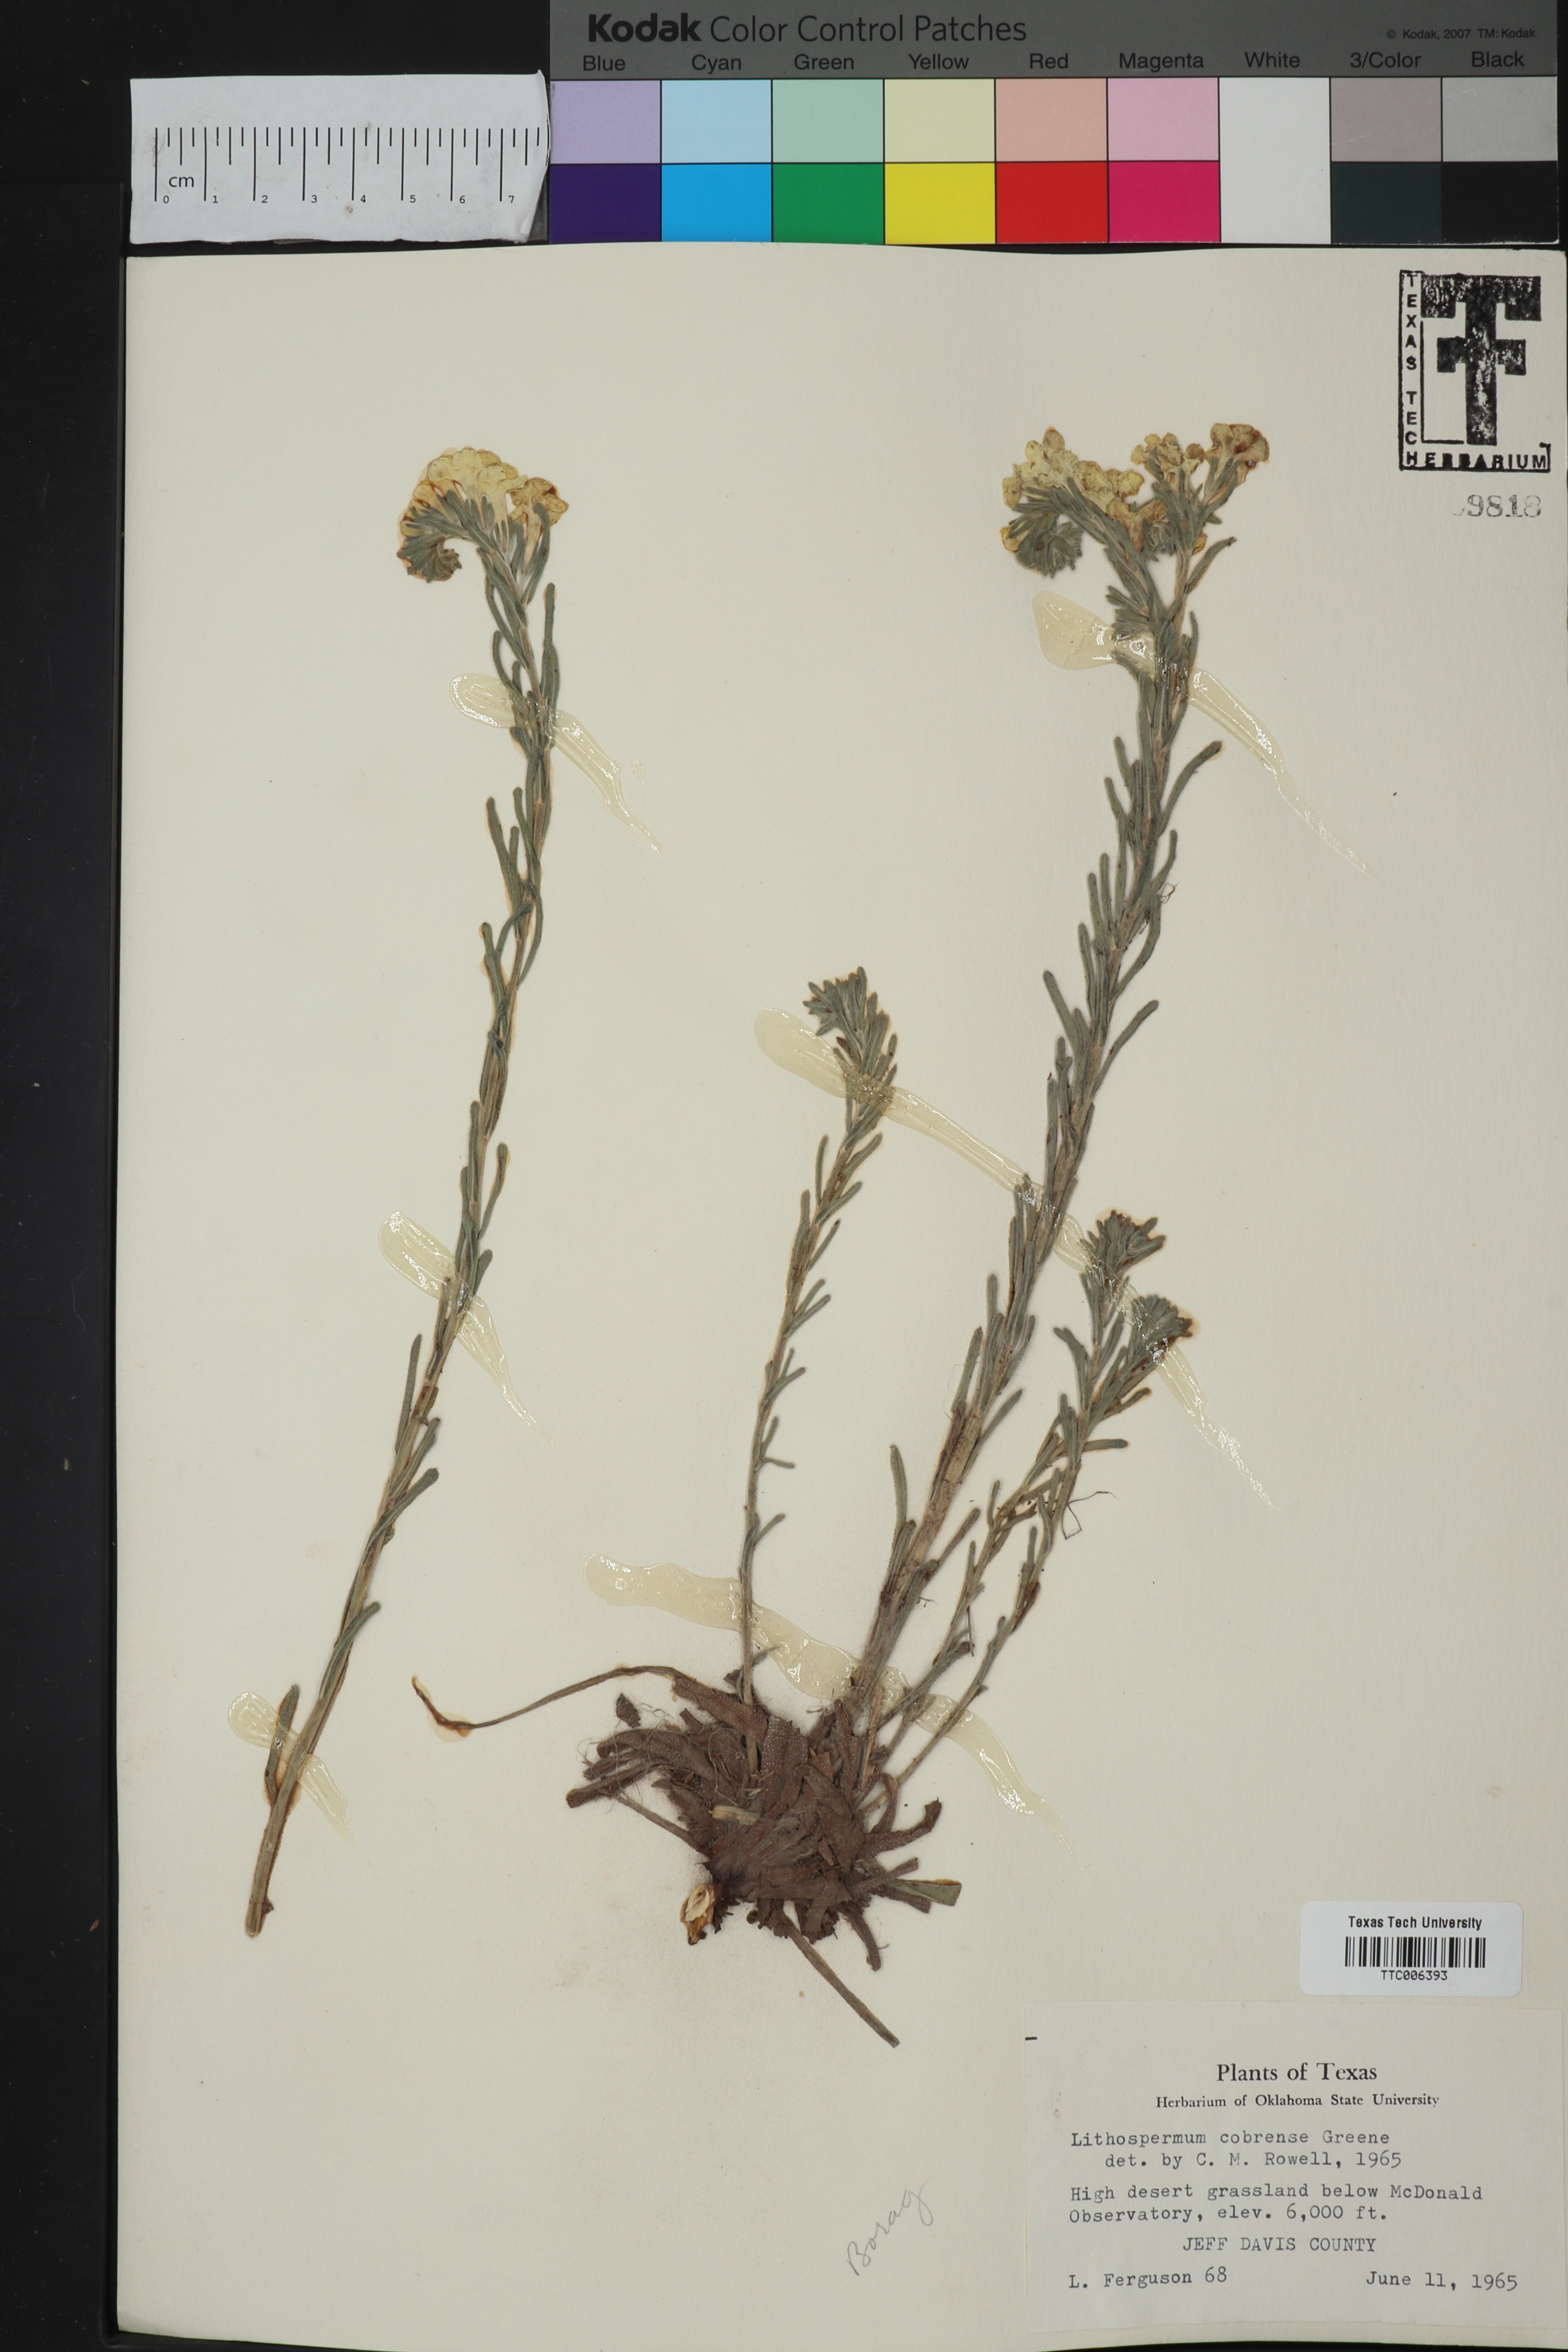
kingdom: Plantae
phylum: Tracheophyta
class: Magnoliopsida
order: Boraginales
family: Boraginaceae
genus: Lithospermum
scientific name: Lithospermum cobrense
